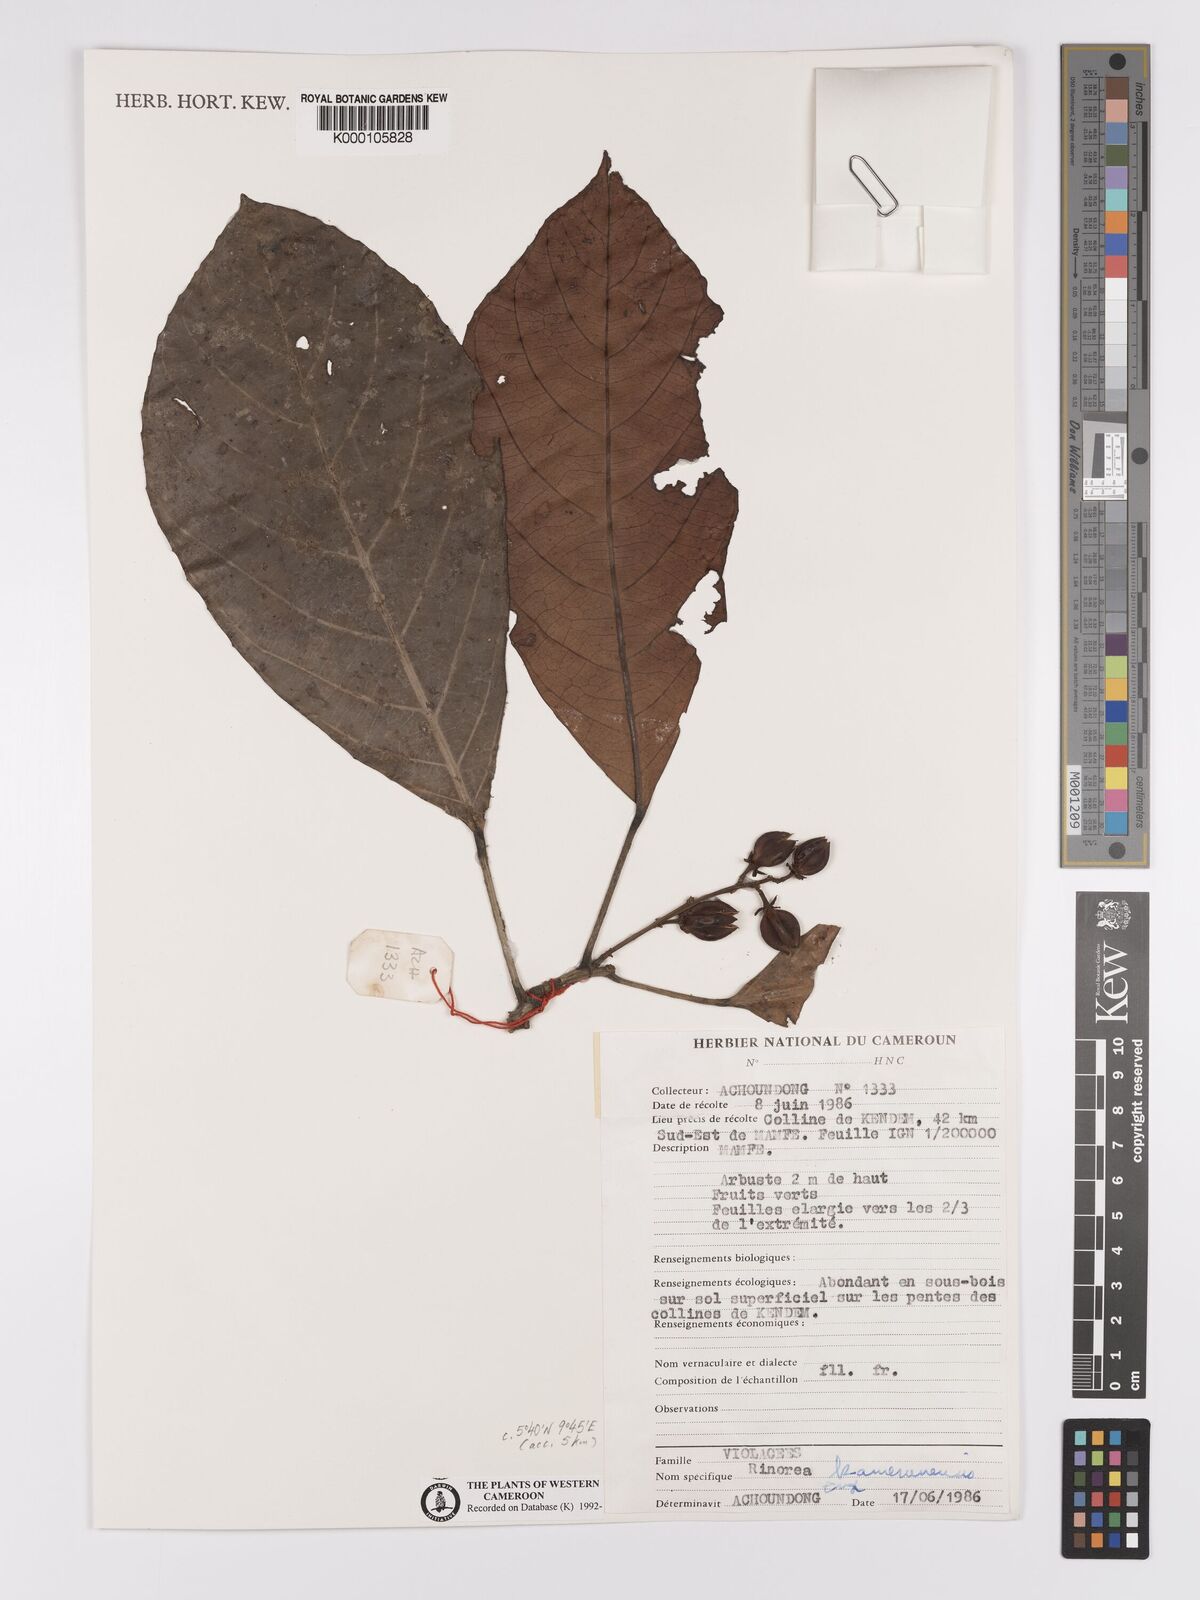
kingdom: Plantae
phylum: Tracheophyta
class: Magnoliopsida
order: Malpighiales
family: Violaceae
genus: Rinorea
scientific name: Rinorea kamerunensis
